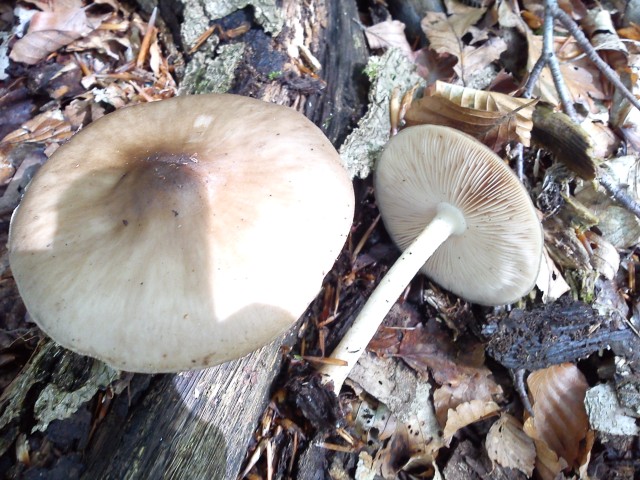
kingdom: Fungi
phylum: Basidiomycota
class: Agaricomycetes
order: Agaricales
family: Pluteaceae
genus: Pluteus
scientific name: Pluteus cervinus
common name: sodfarvet skærmhat
